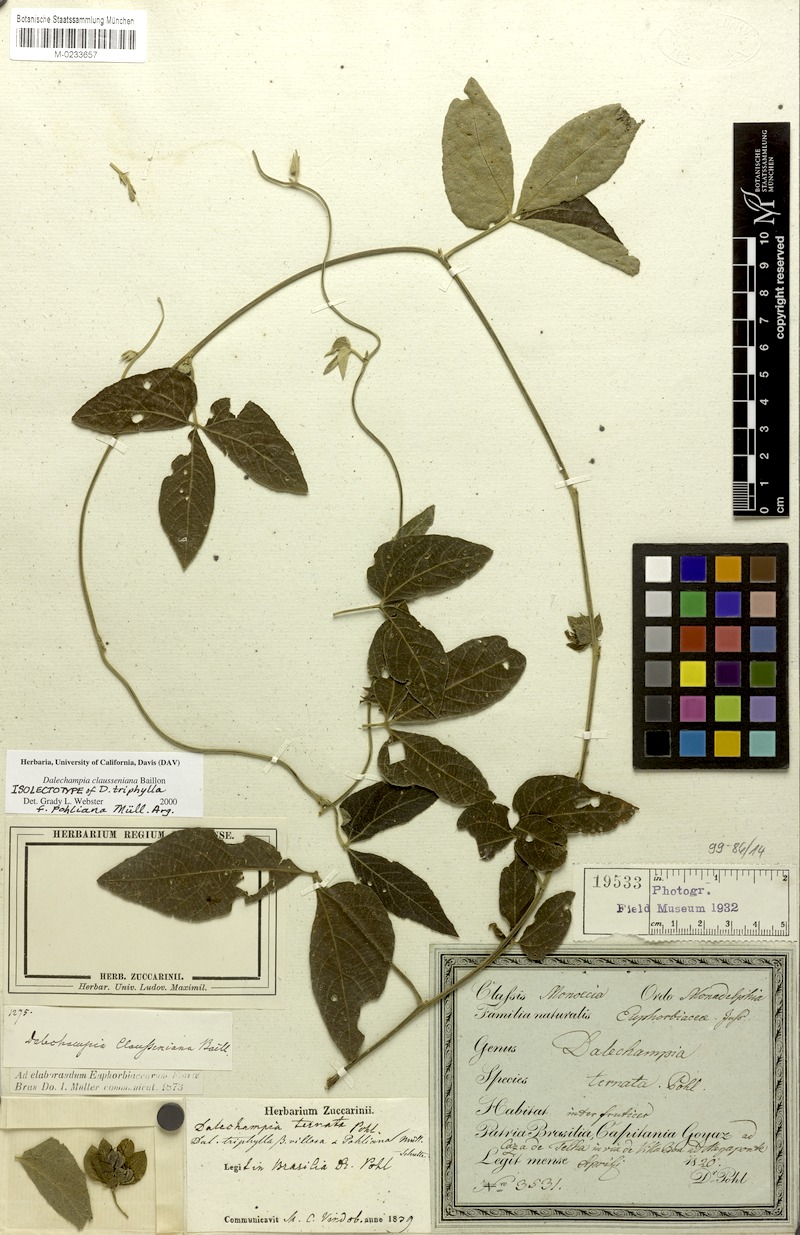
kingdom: Plantae
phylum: Tracheophyta
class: Magnoliopsida
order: Malpighiales
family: Euphorbiaceae
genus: Dalechampia
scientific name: Dalechampia clausseniana
